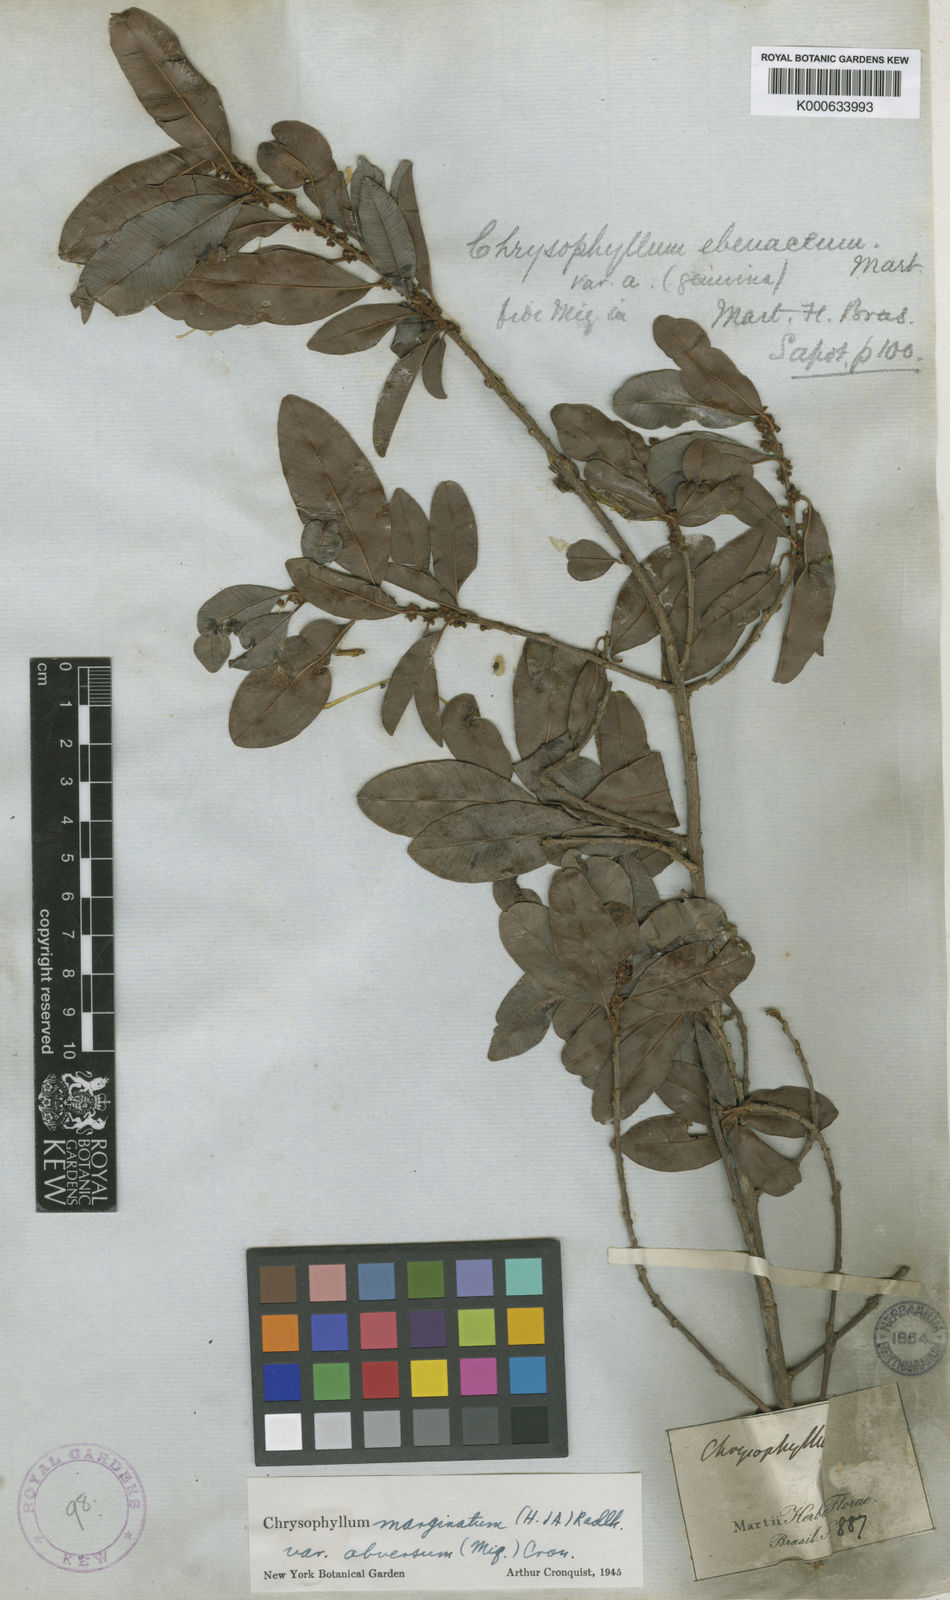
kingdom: Plantae
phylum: Tracheophyta
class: Magnoliopsida
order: Ericales
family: Sapotaceae
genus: Chrysophyllum
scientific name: Chrysophyllum marginatum
